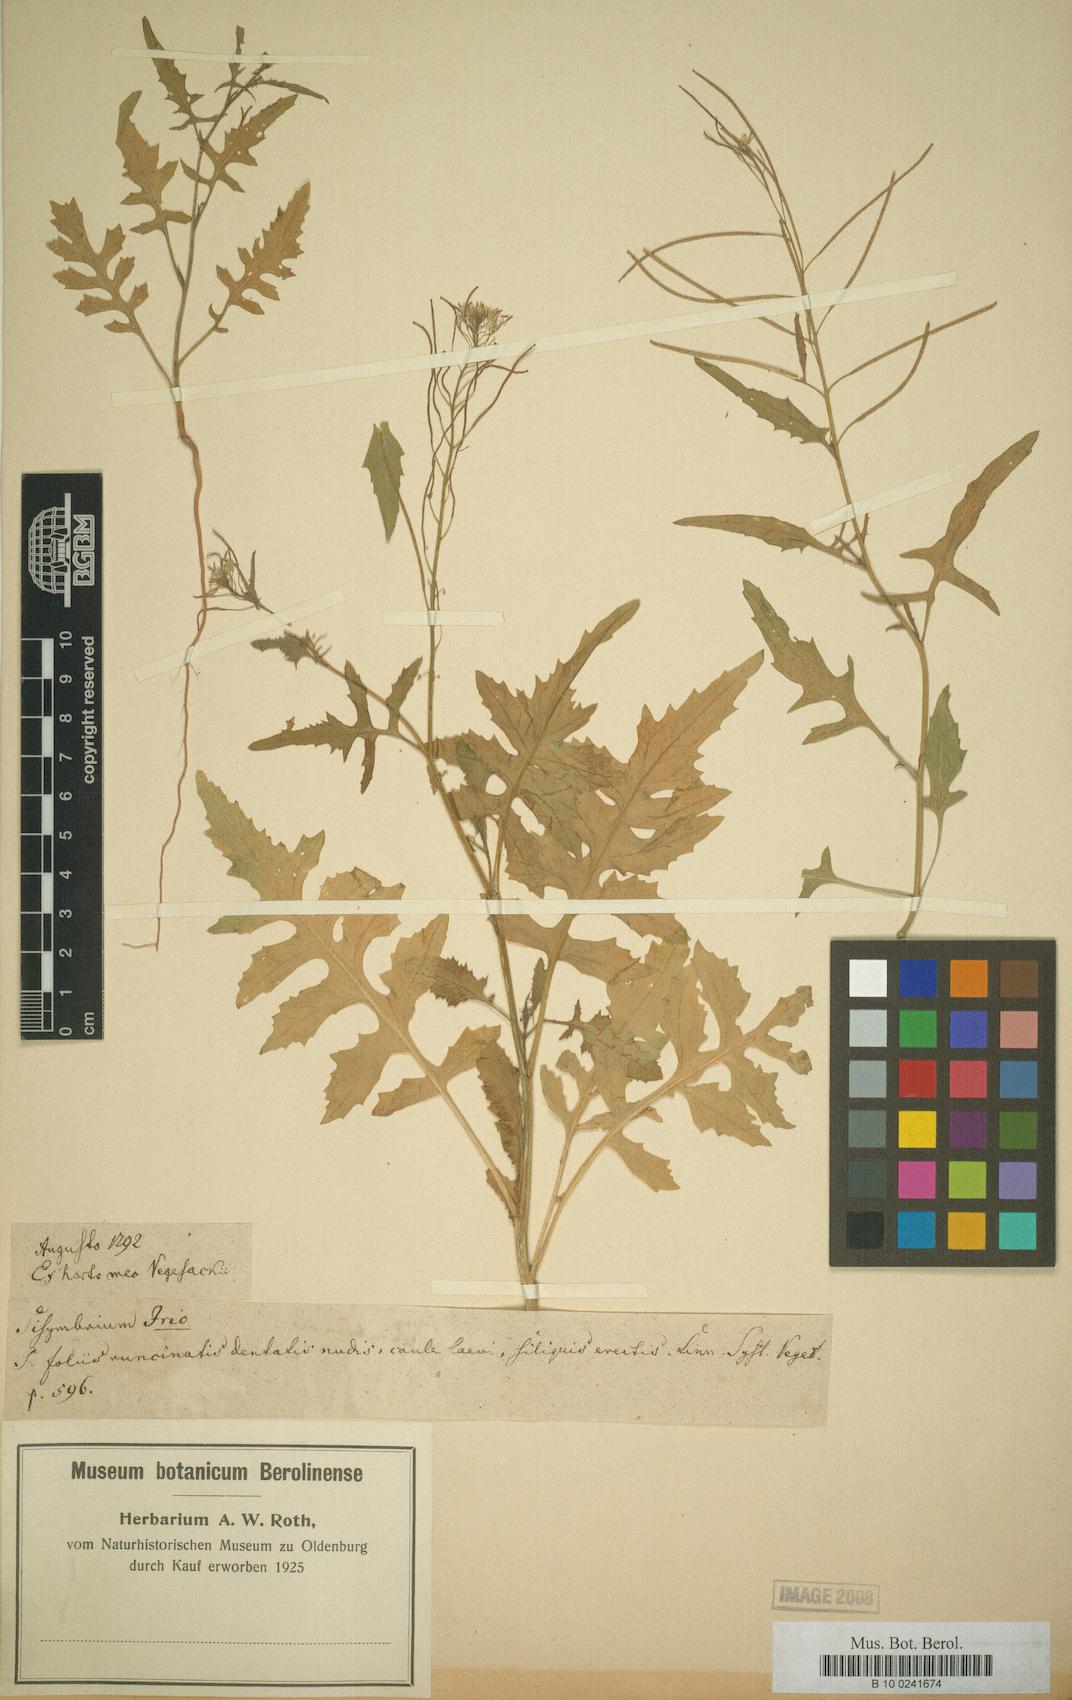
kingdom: Plantae
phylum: Tracheophyta
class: Magnoliopsida
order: Brassicales
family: Brassicaceae
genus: Sisymbrium
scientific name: Sisymbrium irio
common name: London rocket
